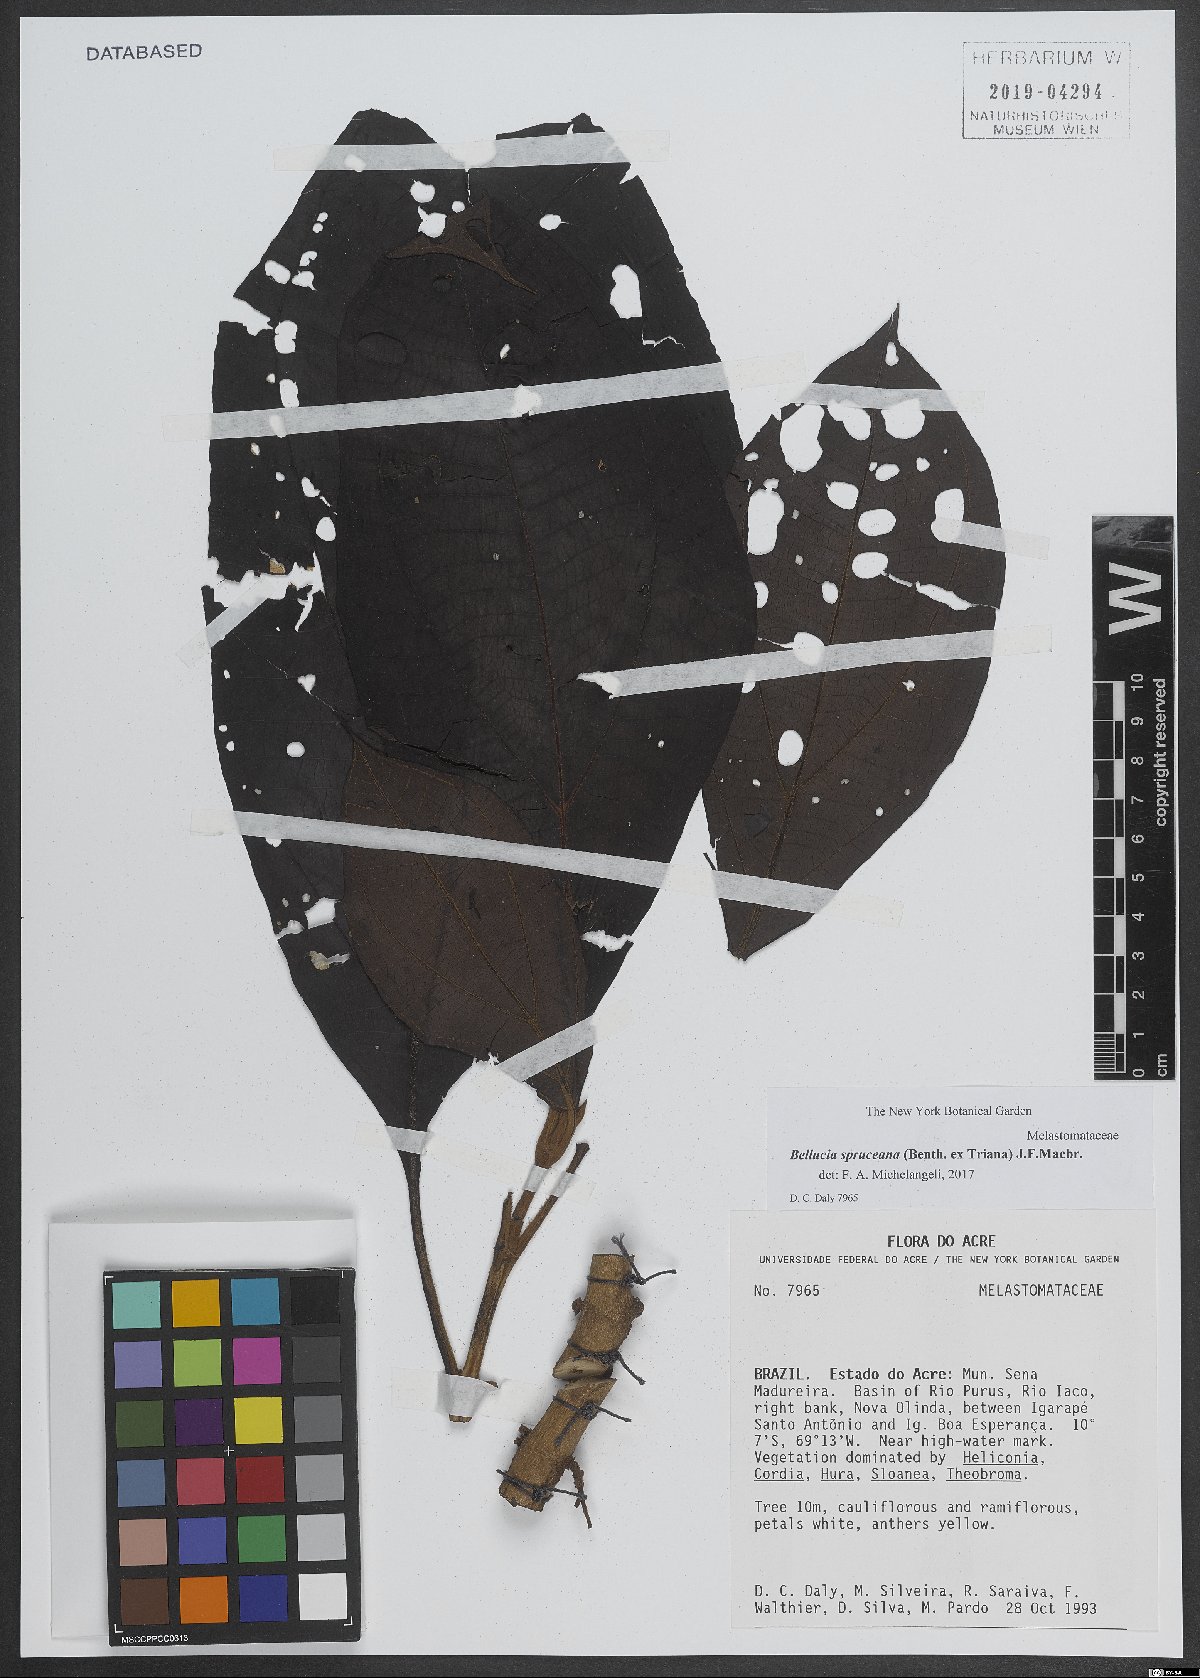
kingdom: Plantae
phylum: Tracheophyta
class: Magnoliopsida
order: Myrtales
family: Melastomataceae
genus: Bellucia
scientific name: Bellucia spruceana
